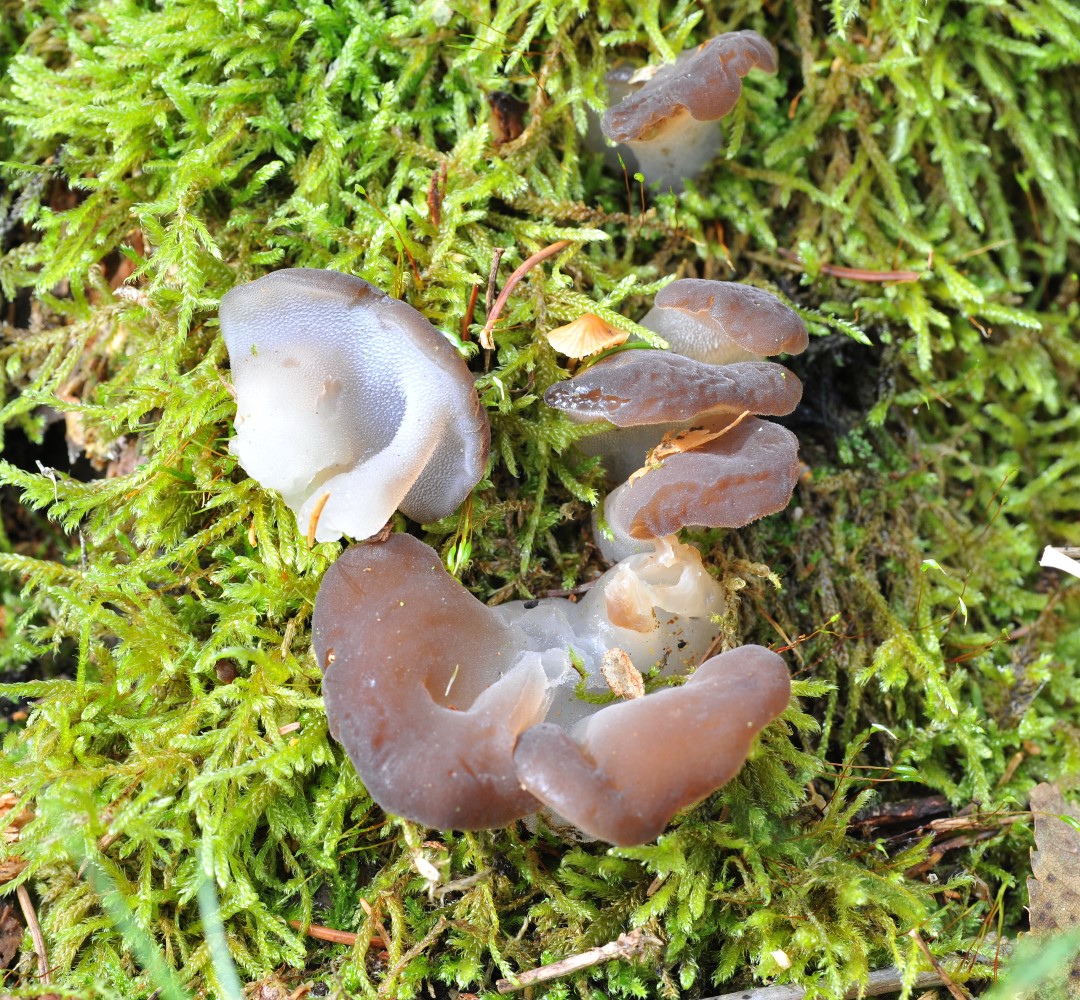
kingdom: Fungi
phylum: Basidiomycota
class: Agaricomycetes
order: Auriculariales
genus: Pseudohydnum
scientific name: Pseudohydnum gelatinosum
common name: bævretand
